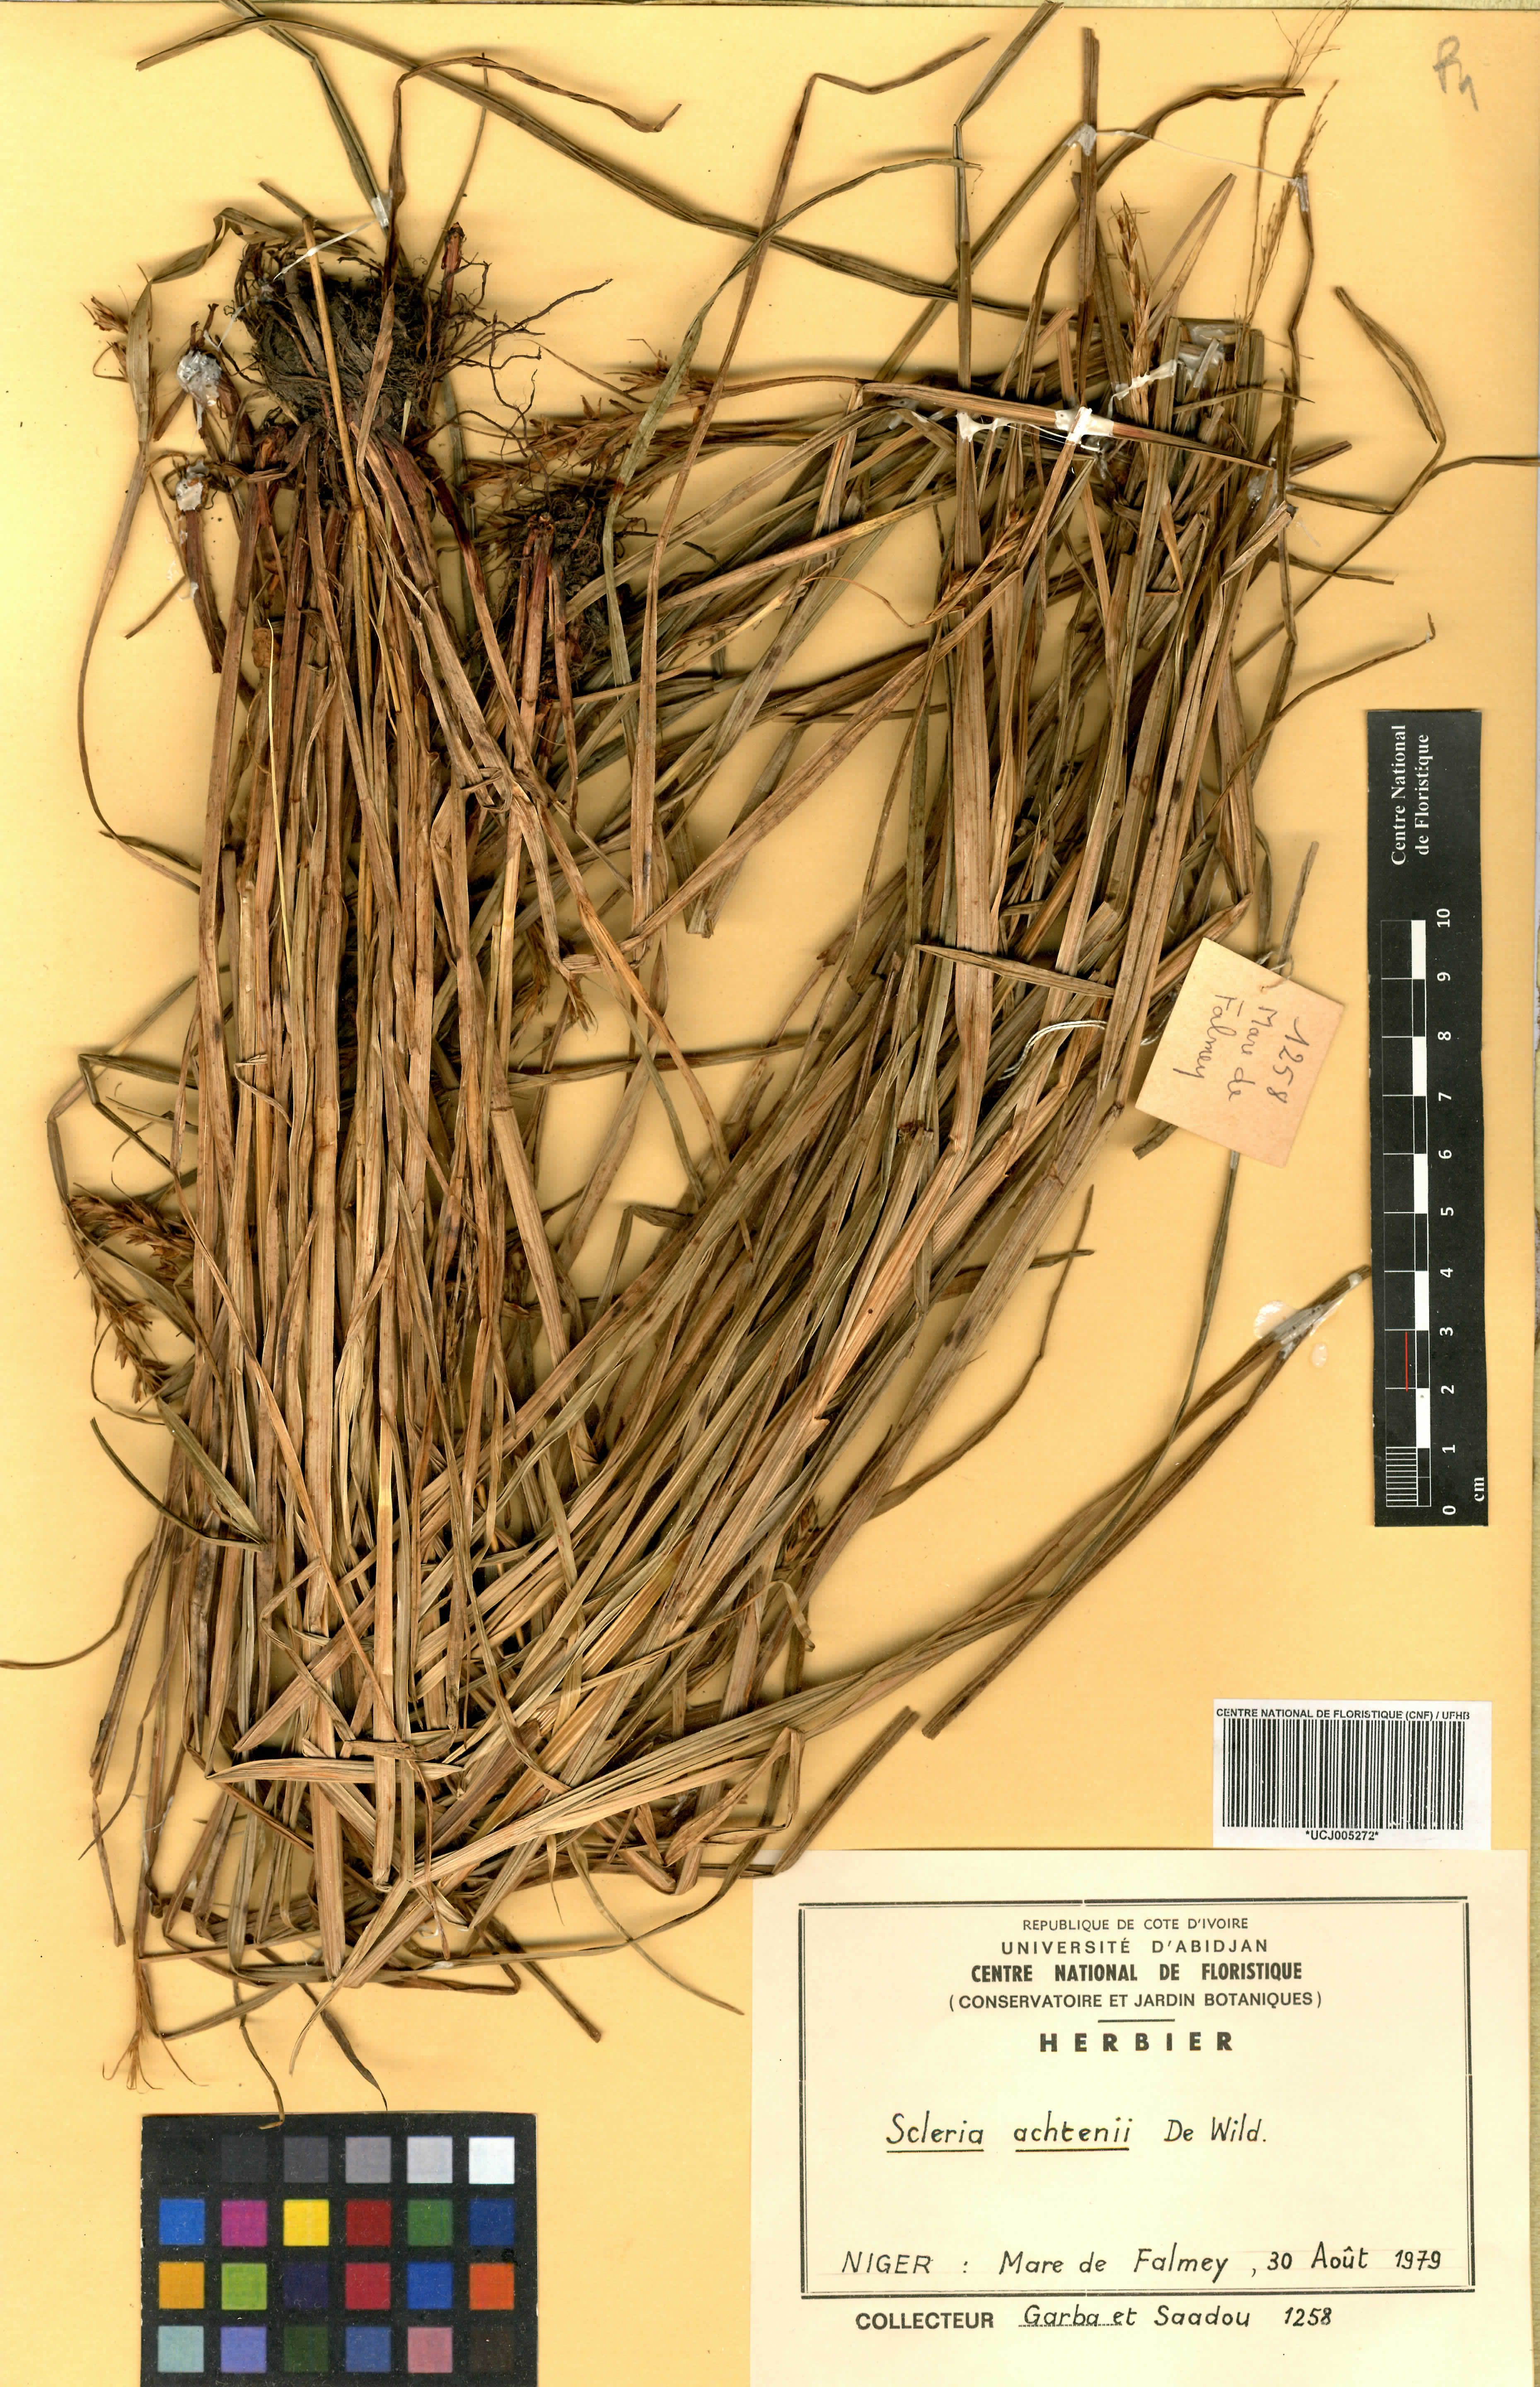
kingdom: Plantae
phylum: Tracheophyta
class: Liliopsida
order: Poales
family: Cyperaceae
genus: Scleria
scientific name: Scleria achtenii
